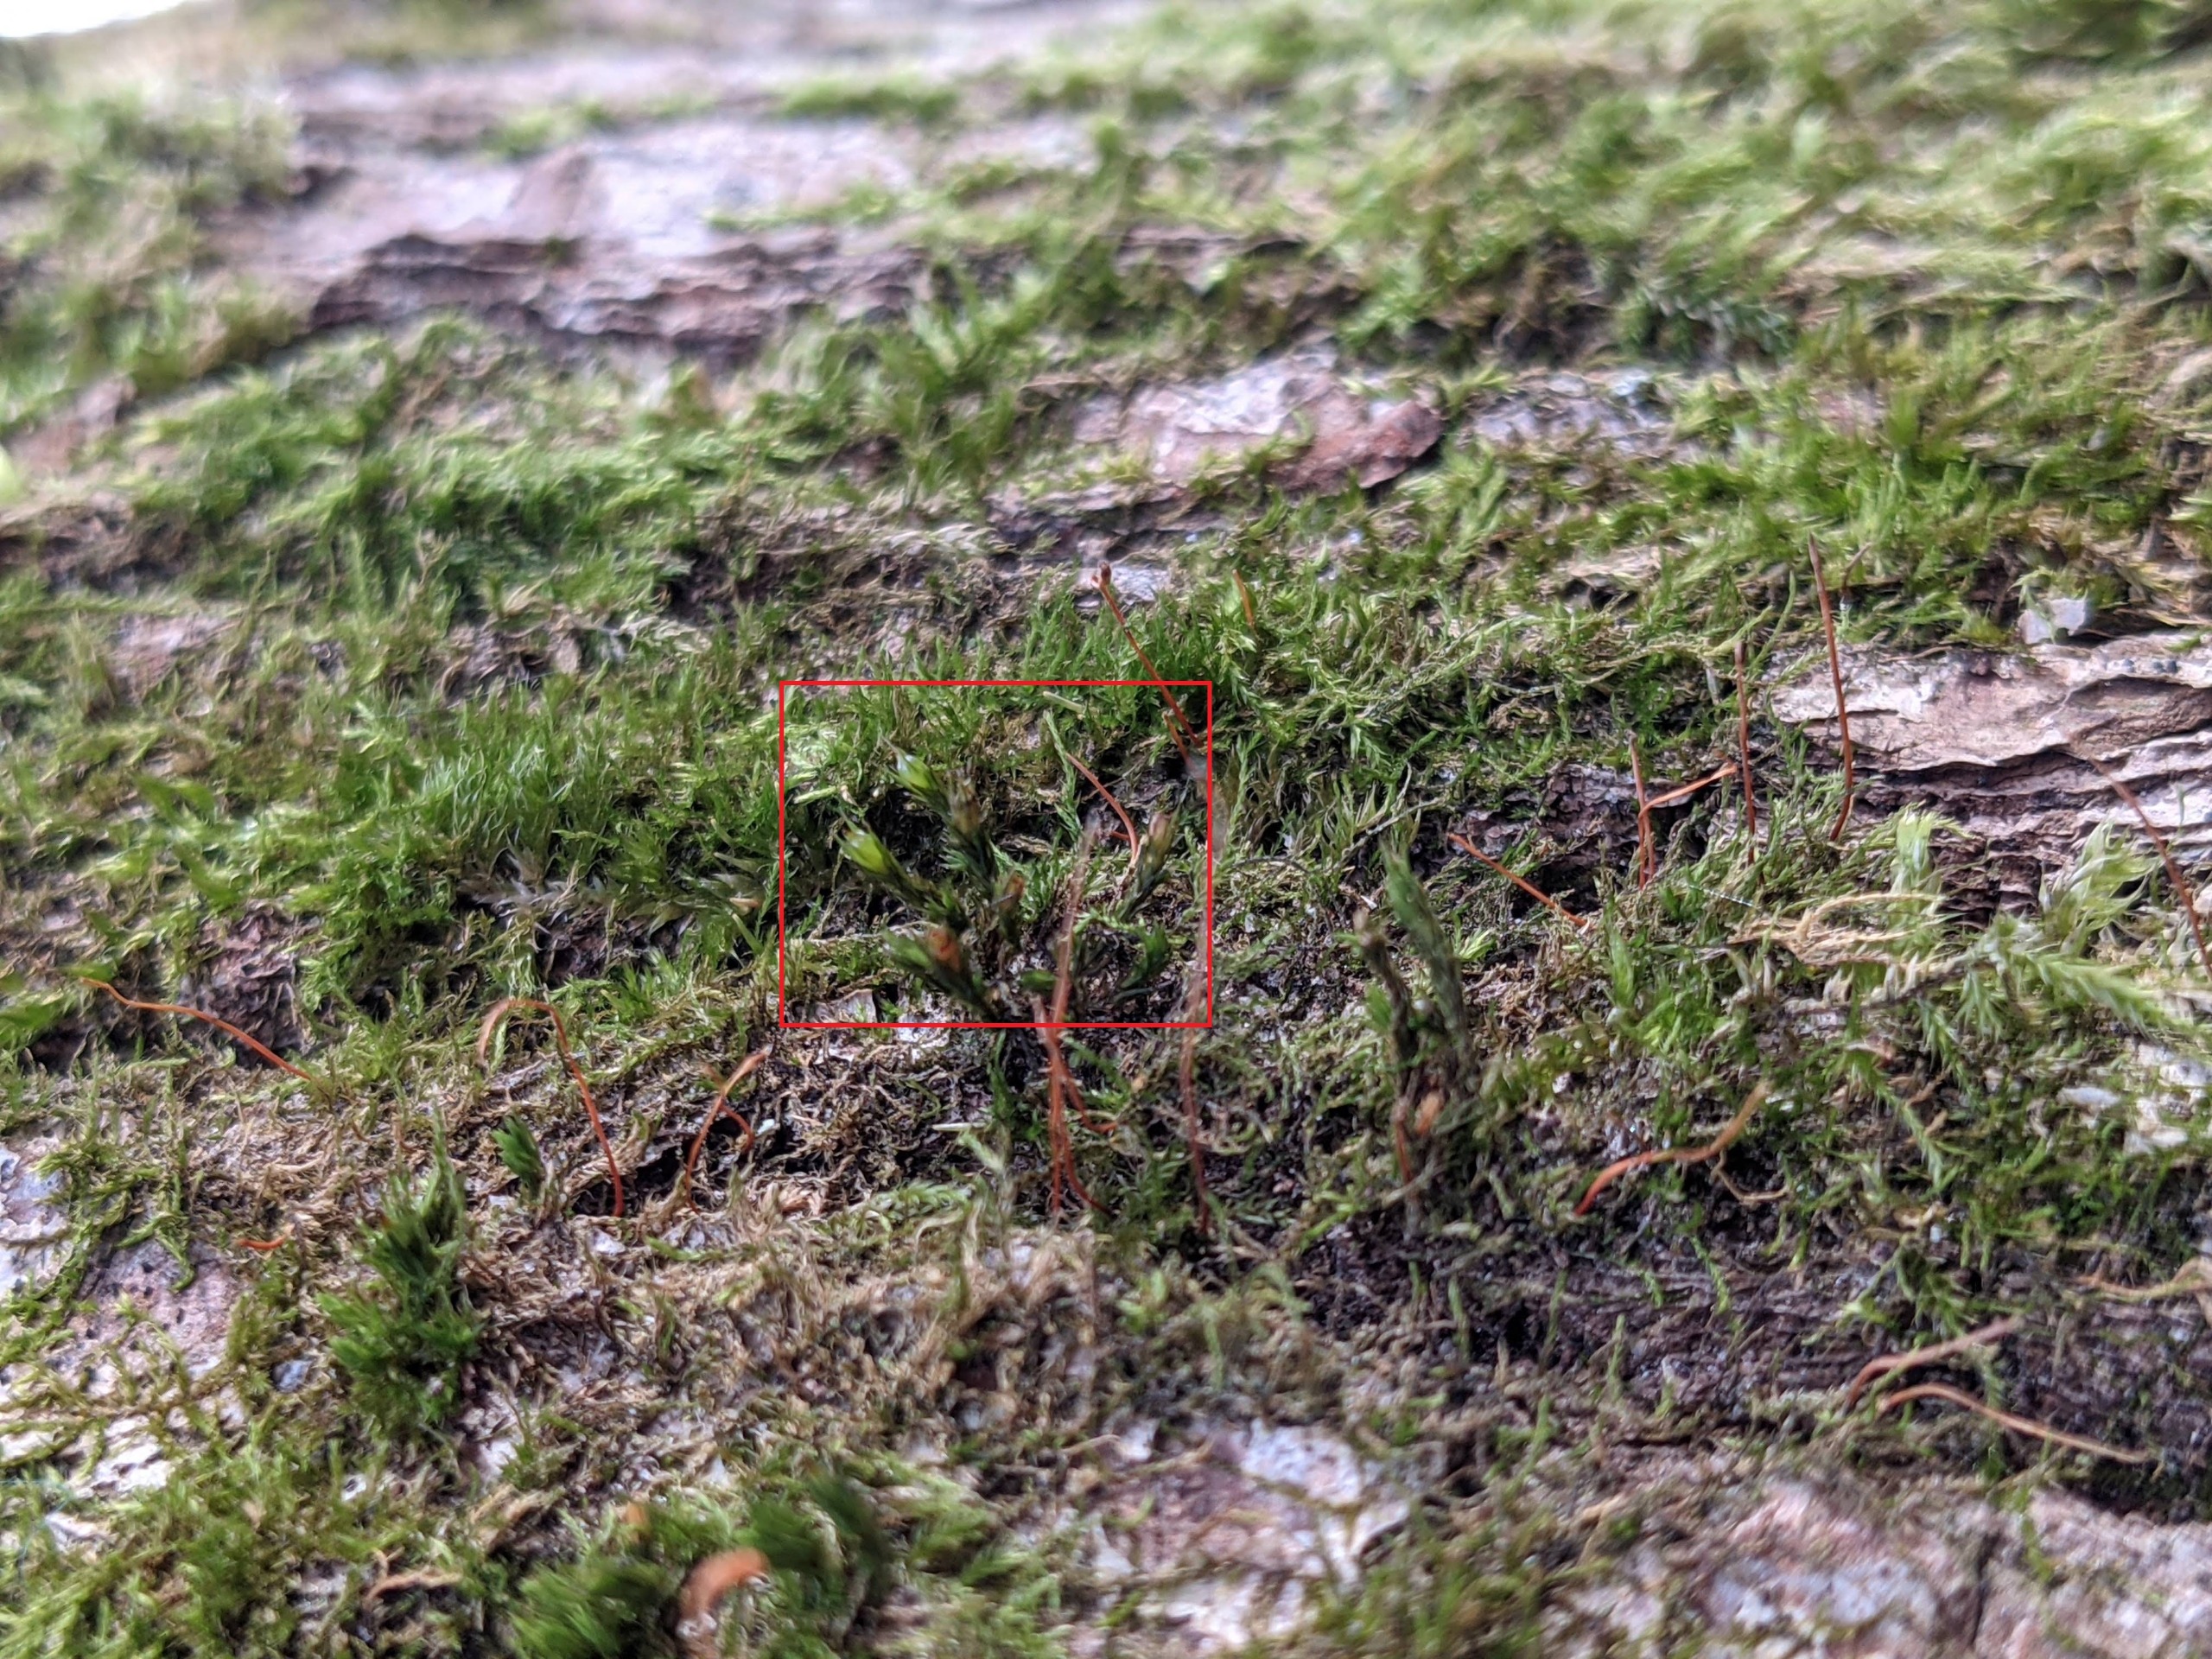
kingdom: Plantae
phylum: Bryophyta
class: Bryopsida
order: Grimmiales
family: Grimmiaceae
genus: Schistidium
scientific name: Schistidium crassipilum
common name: Tyk strålekransmos
